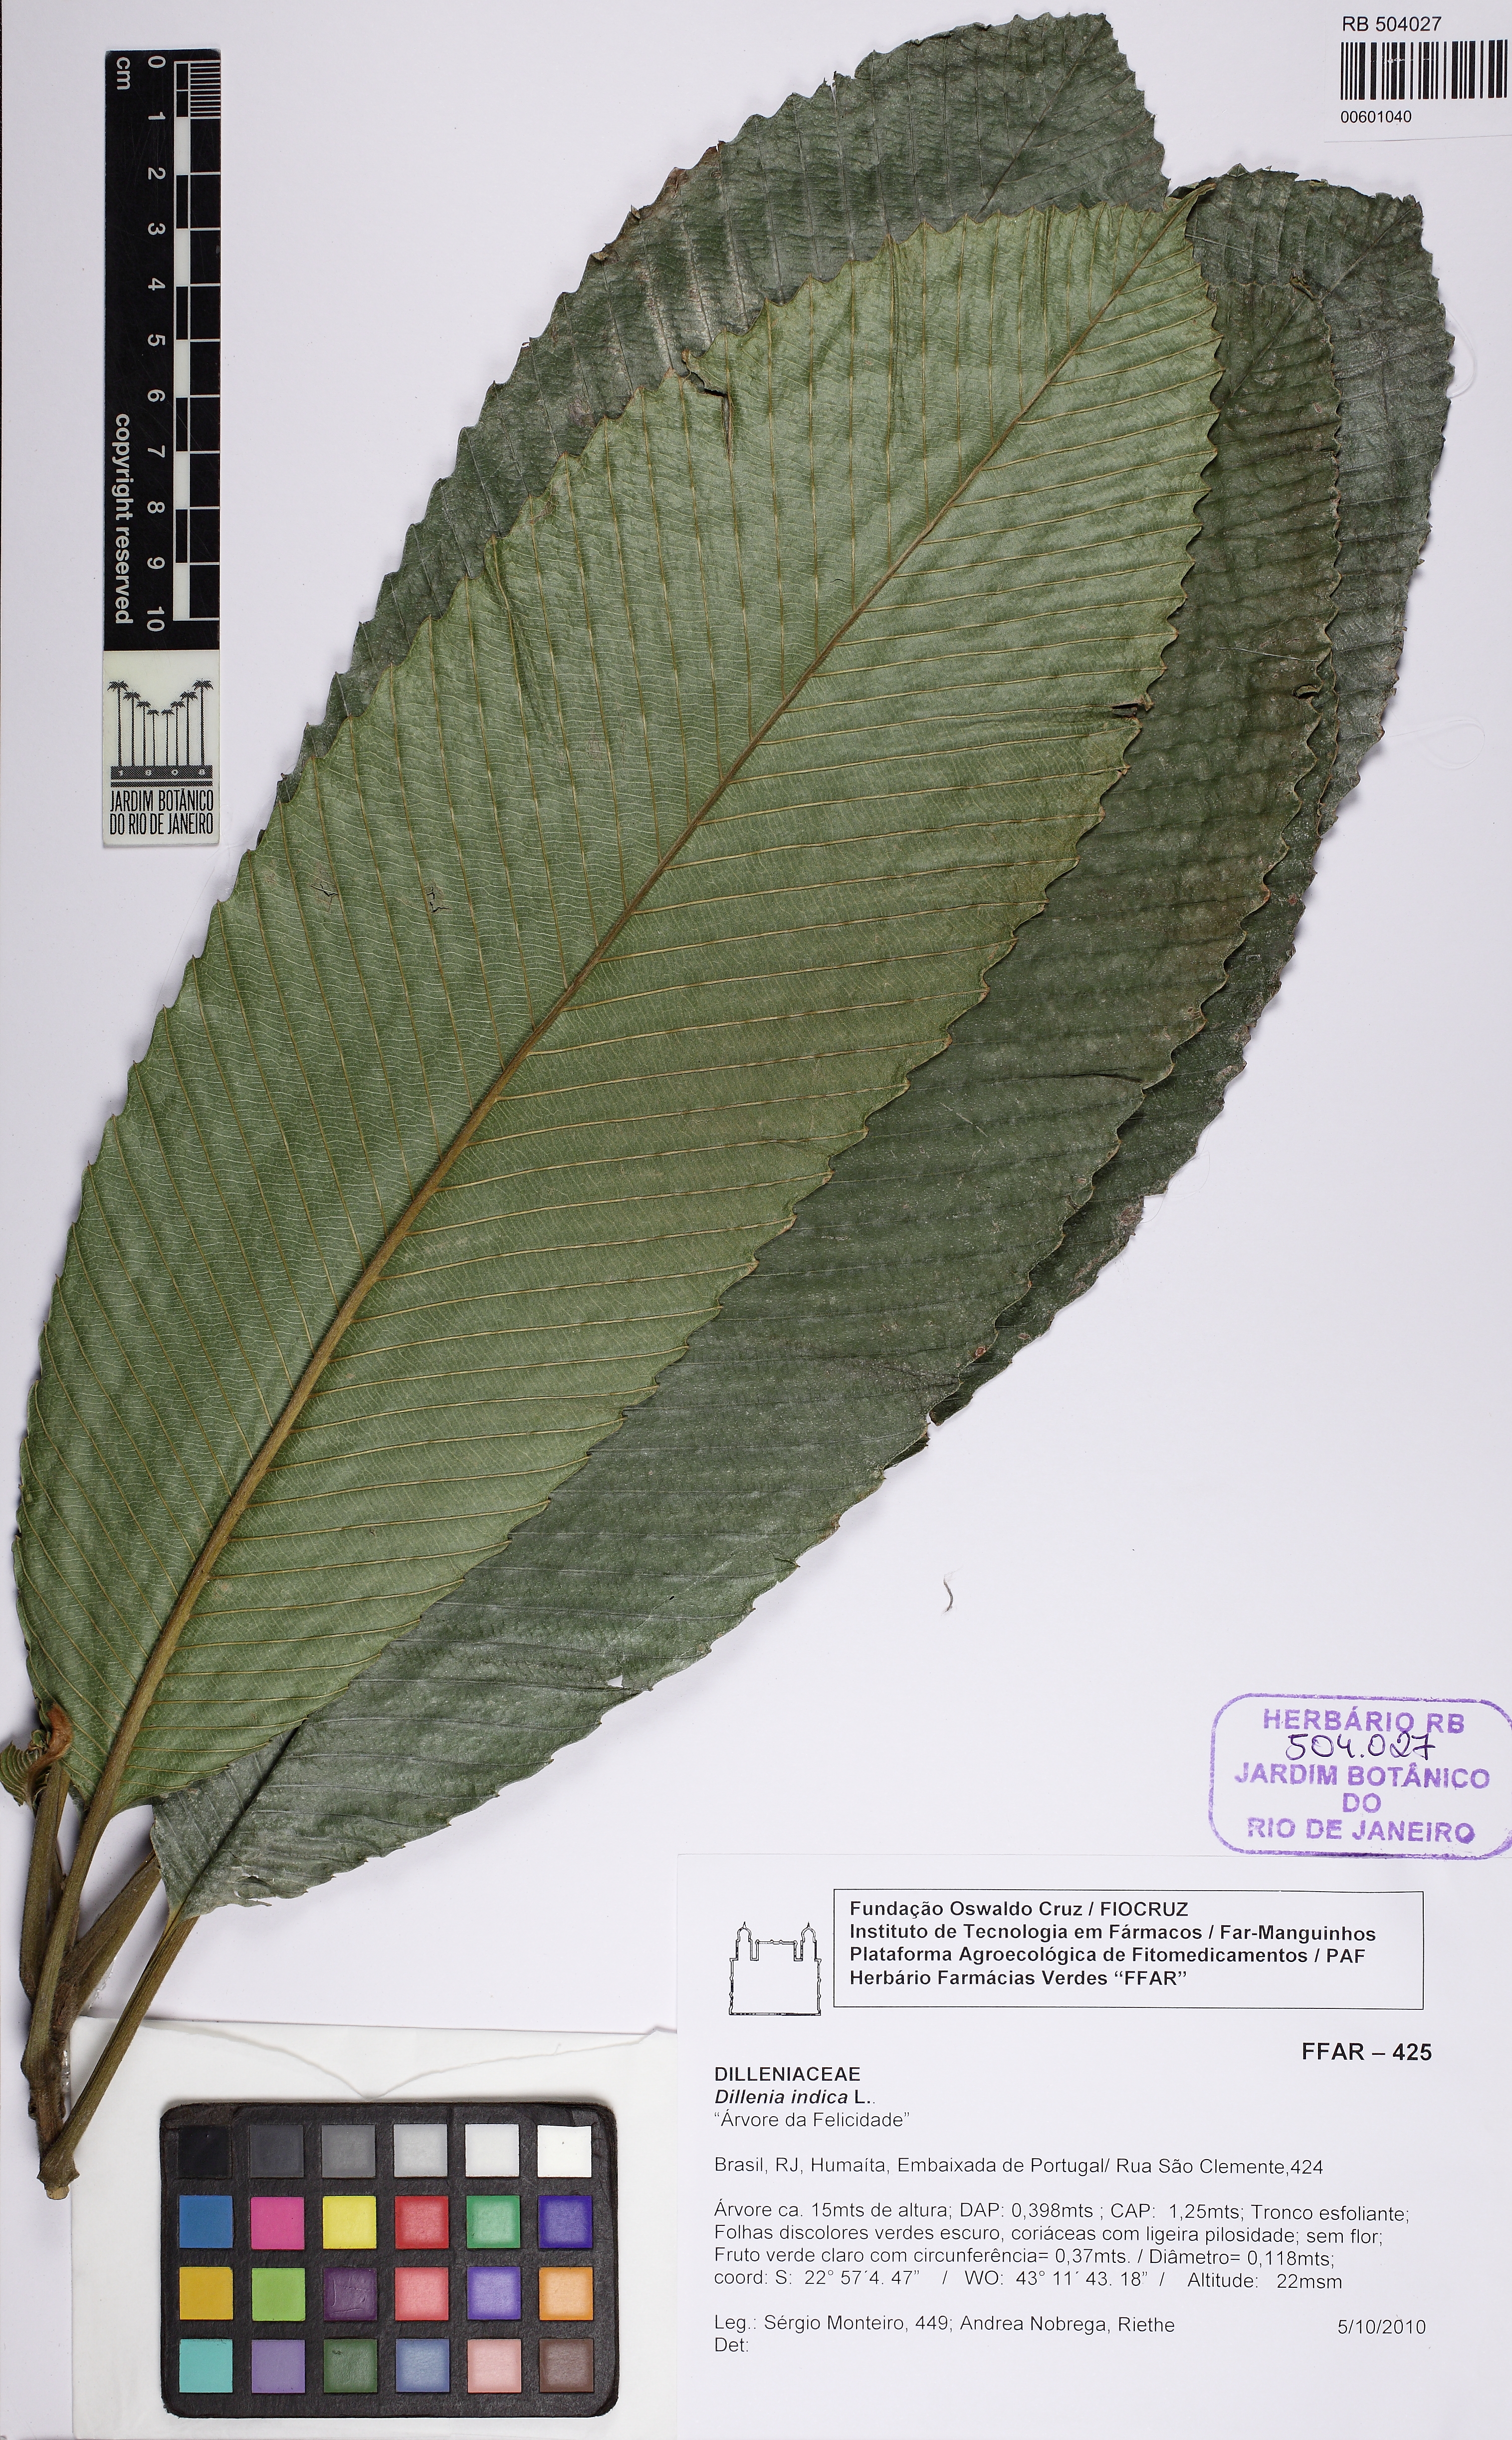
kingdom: Plantae
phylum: Tracheophyta
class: Magnoliopsida
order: Dilleniales
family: Dilleniaceae
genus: Dillenia
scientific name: Dillenia indica
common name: Elephant apple
